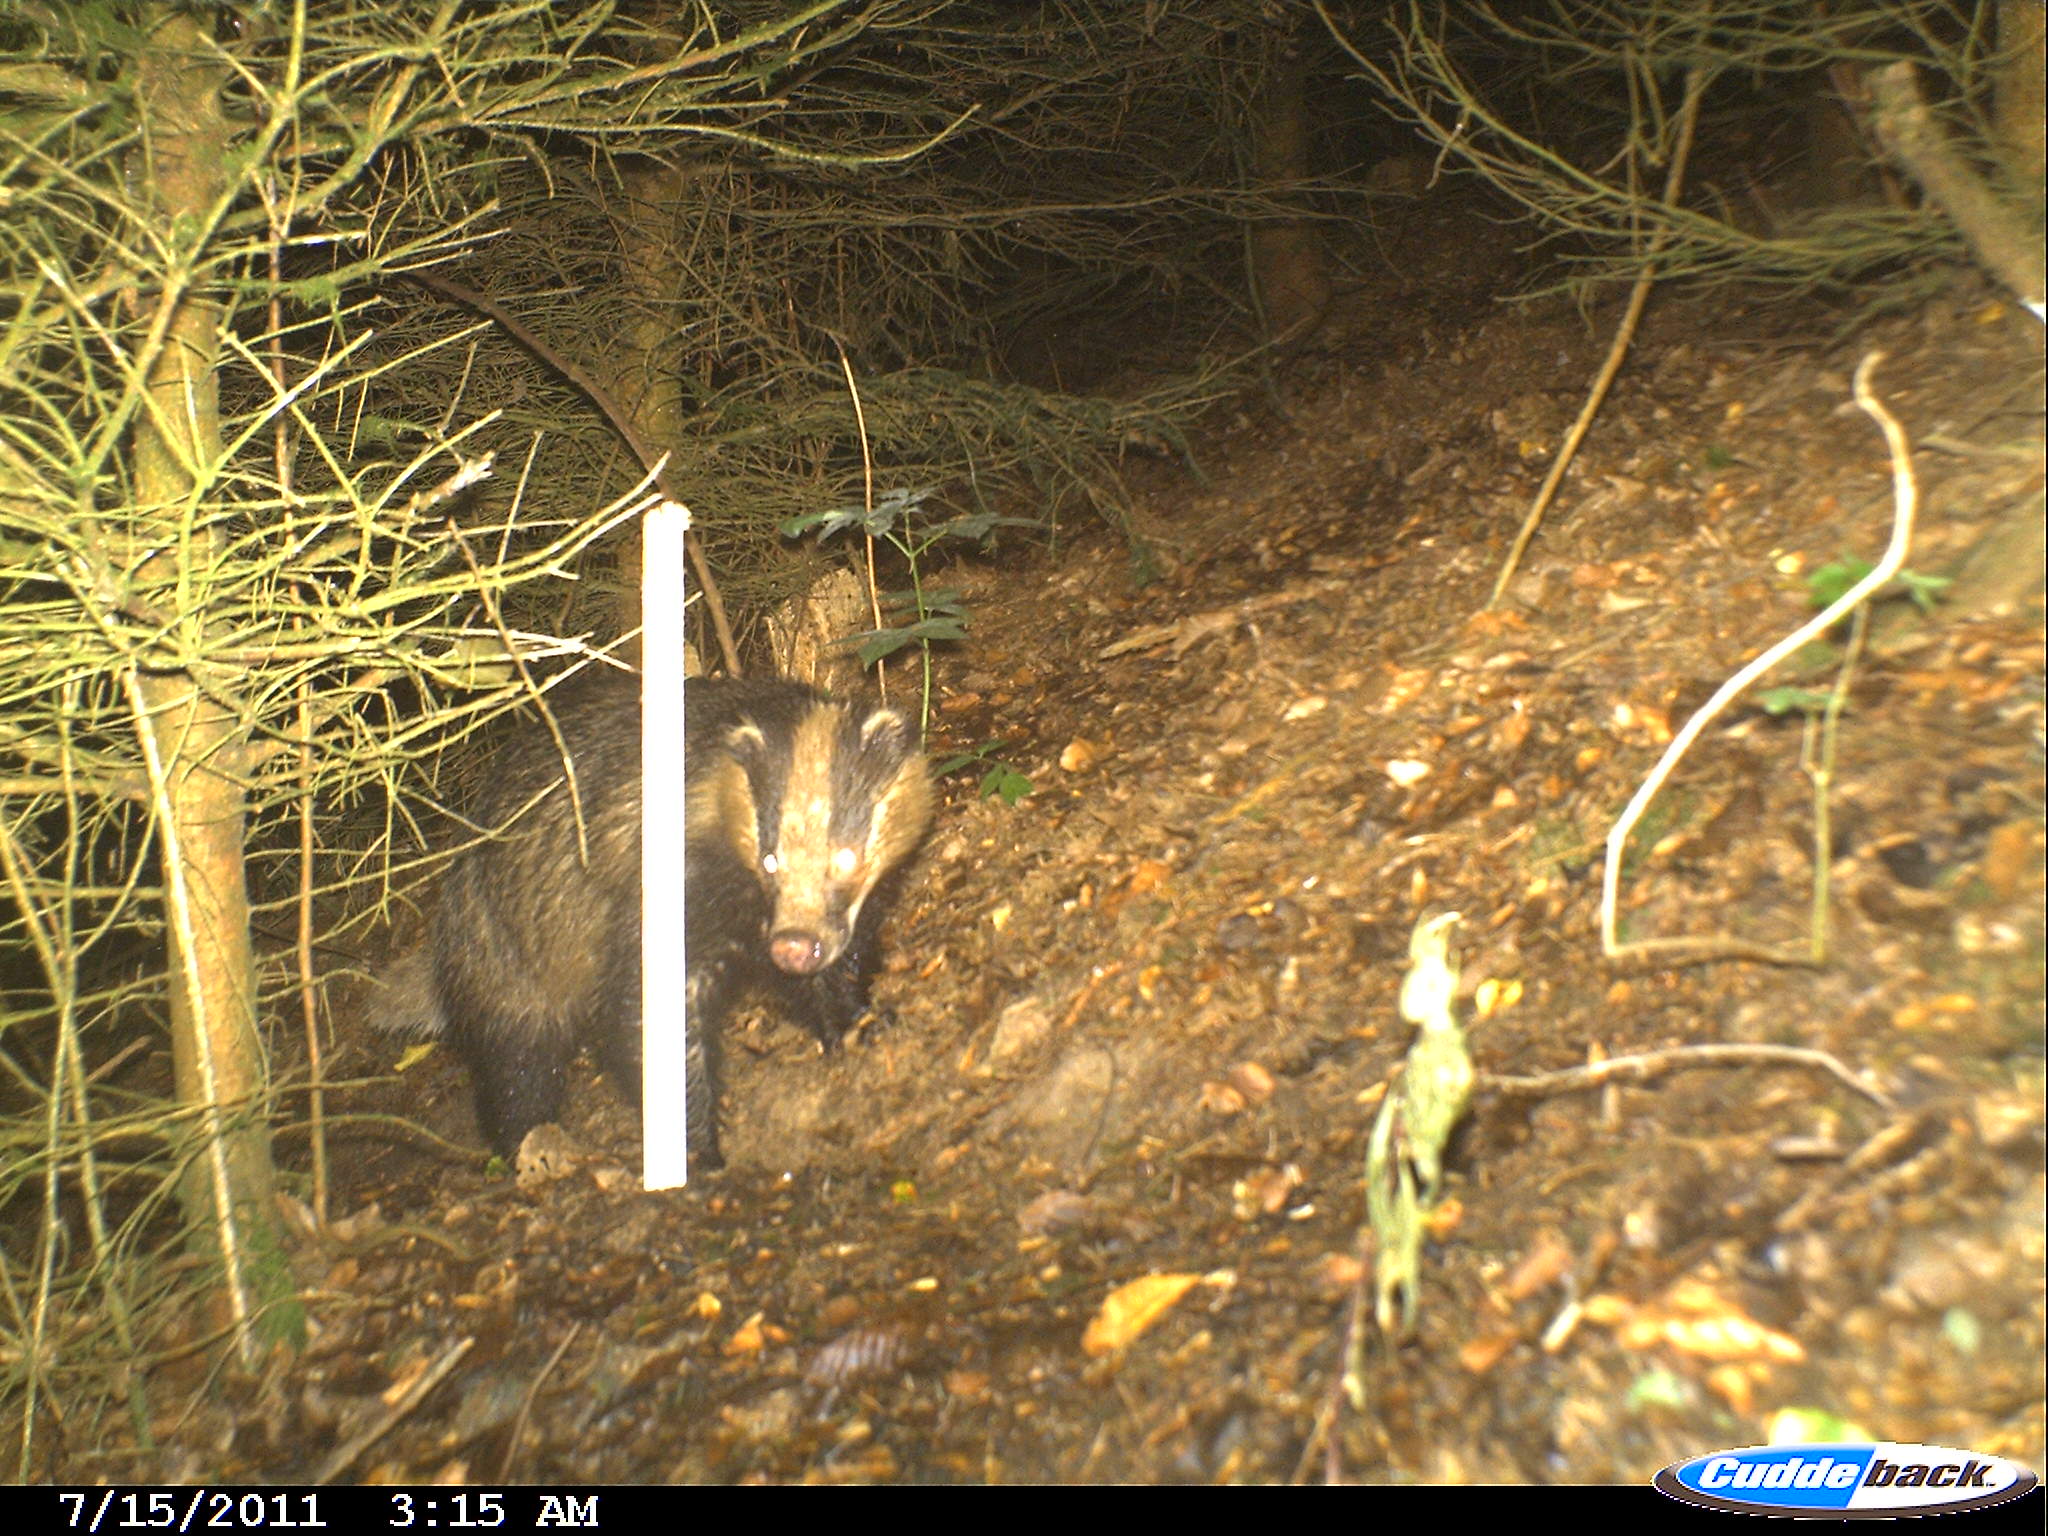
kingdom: Animalia
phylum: Chordata
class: Mammalia
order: Carnivora
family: Mustelidae
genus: Meles
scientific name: Meles meles
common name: Eurasian badger
